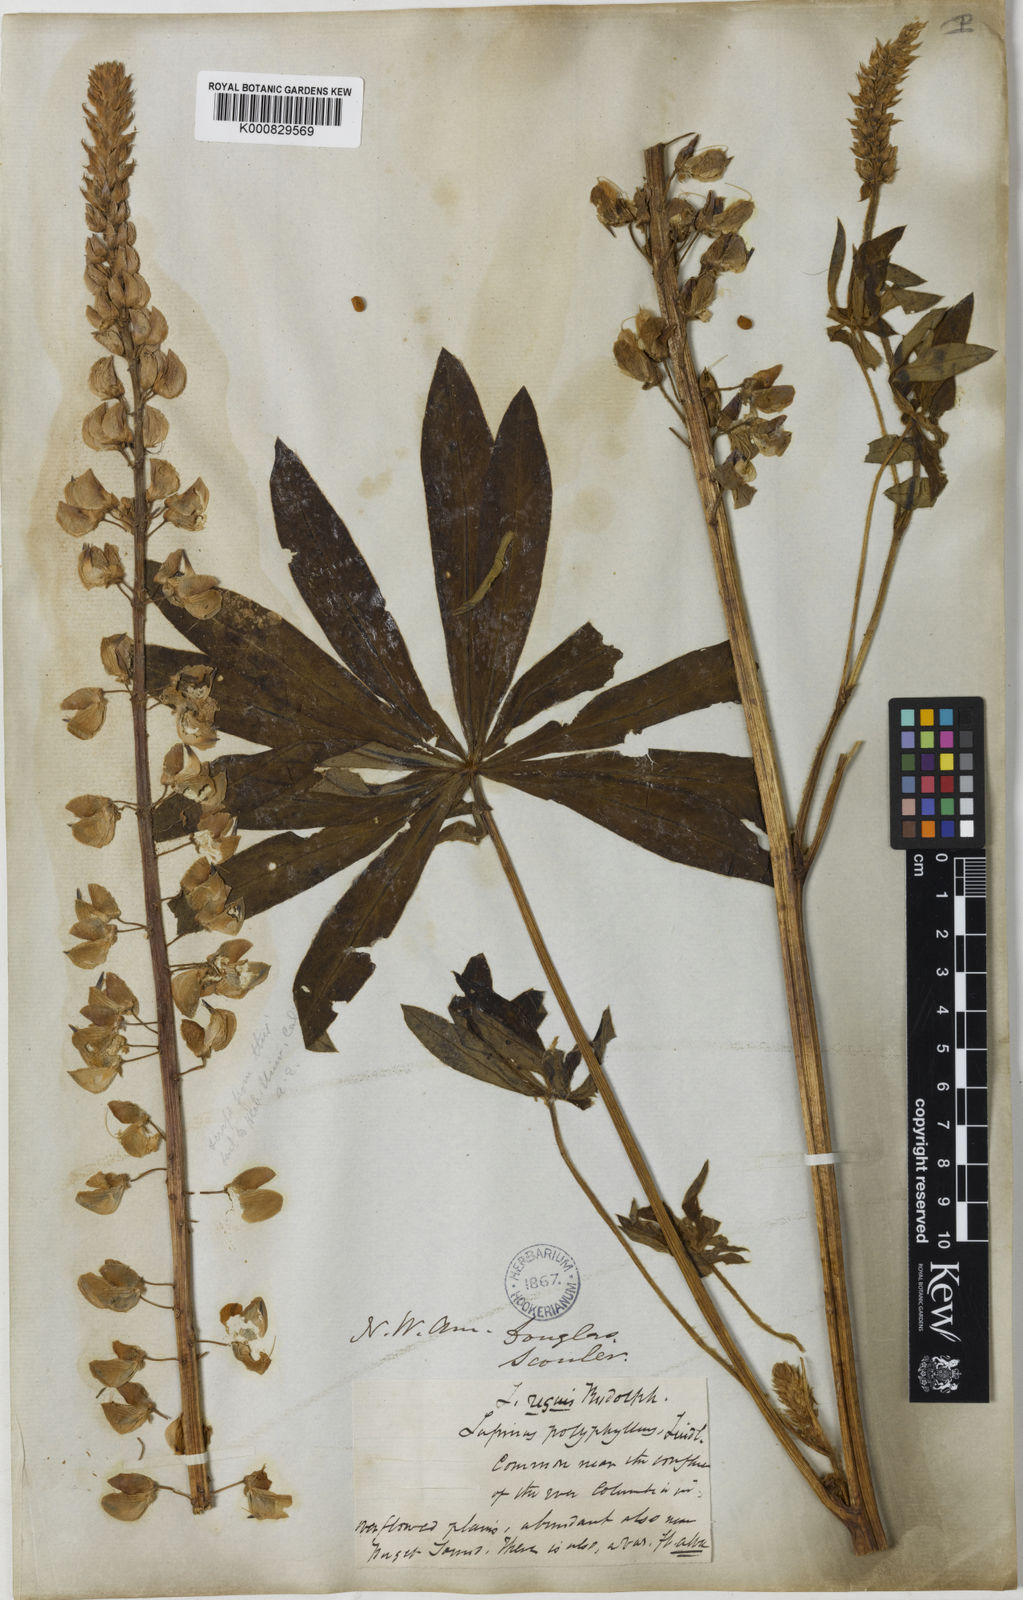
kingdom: Plantae
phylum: Tracheophyta
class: Magnoliopsida
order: Fabales
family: Fabaceae
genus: Lupinus
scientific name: Lupinus polyphyllus
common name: Garden lupin
